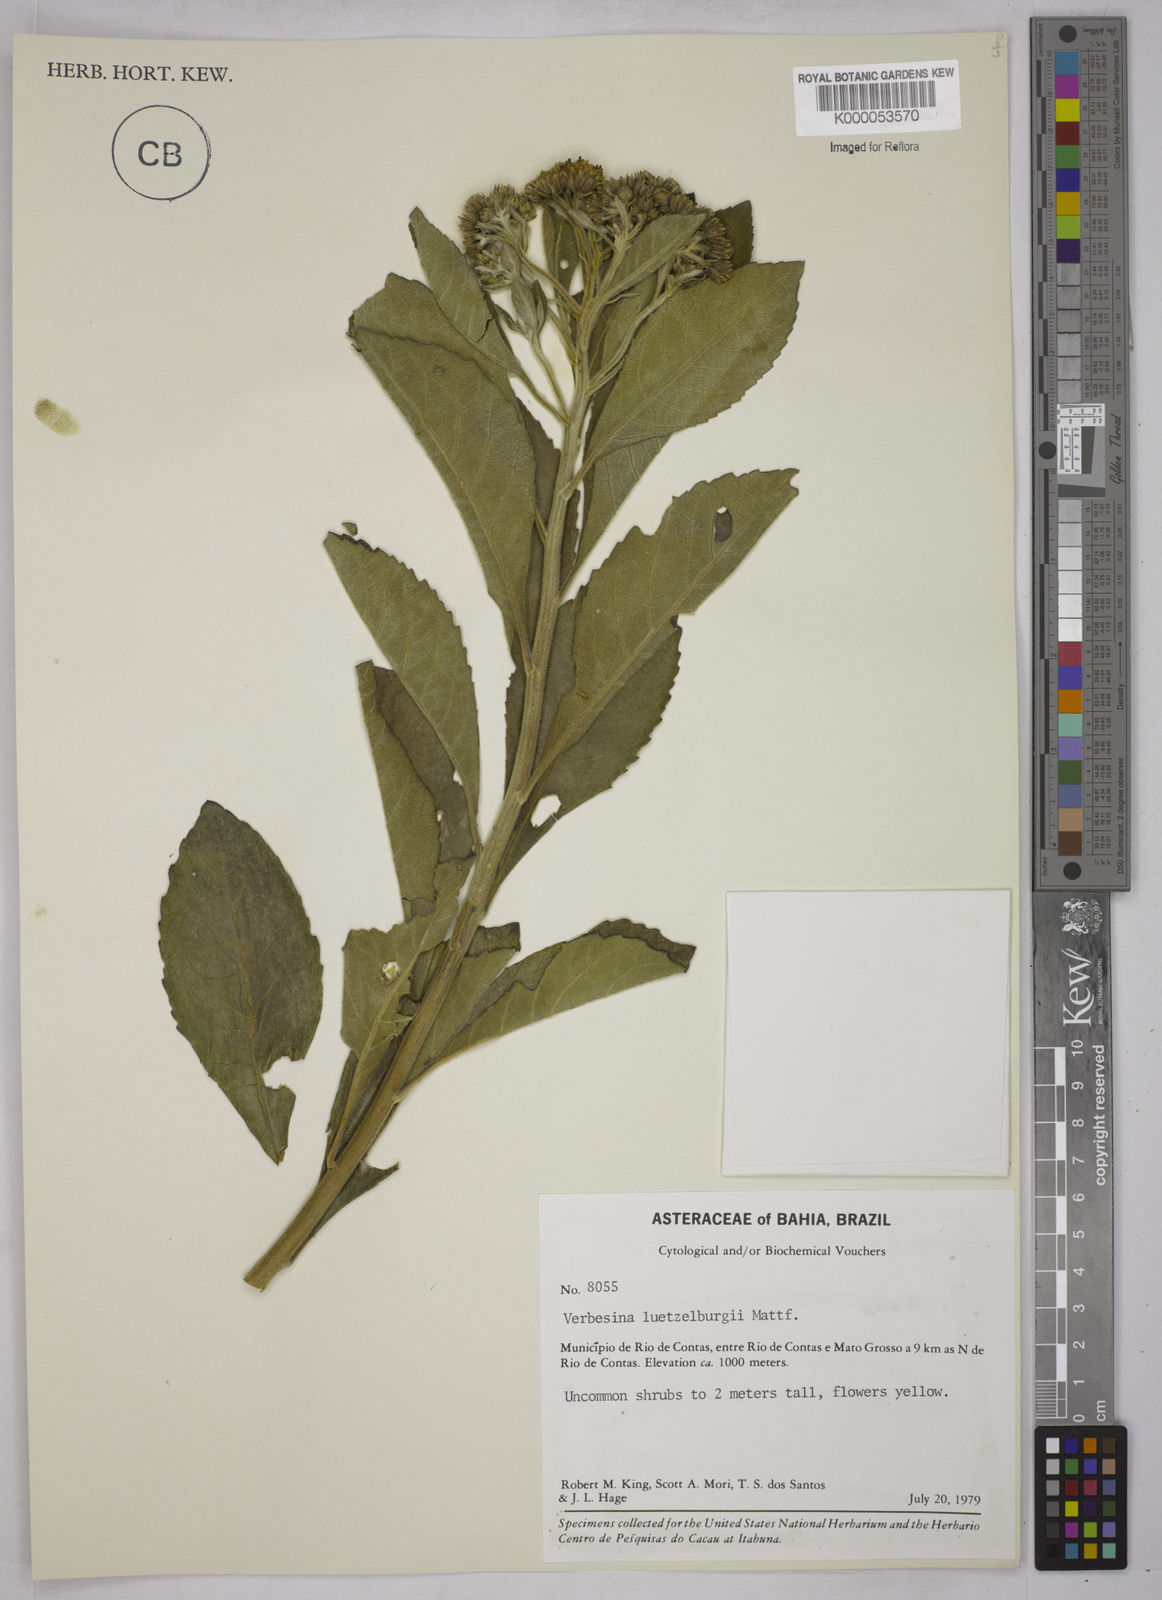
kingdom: Plantae
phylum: Tracheophyta
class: Magnoliopsida
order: Asterales
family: Asteraceae
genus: Verbesina
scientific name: Verbesina luetzelburgii
